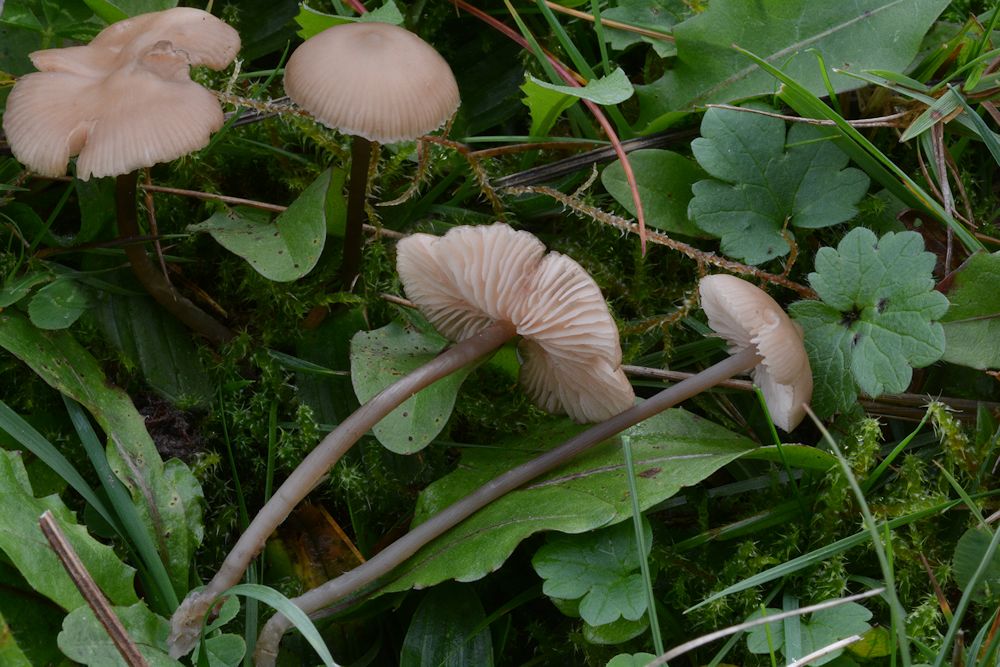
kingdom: Fungi
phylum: Basidiomycota
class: Agaricomycetes
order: Agaricales
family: Entolomataceae
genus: Entoloma
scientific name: Entoloma infula
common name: hvidbladet rødblad
